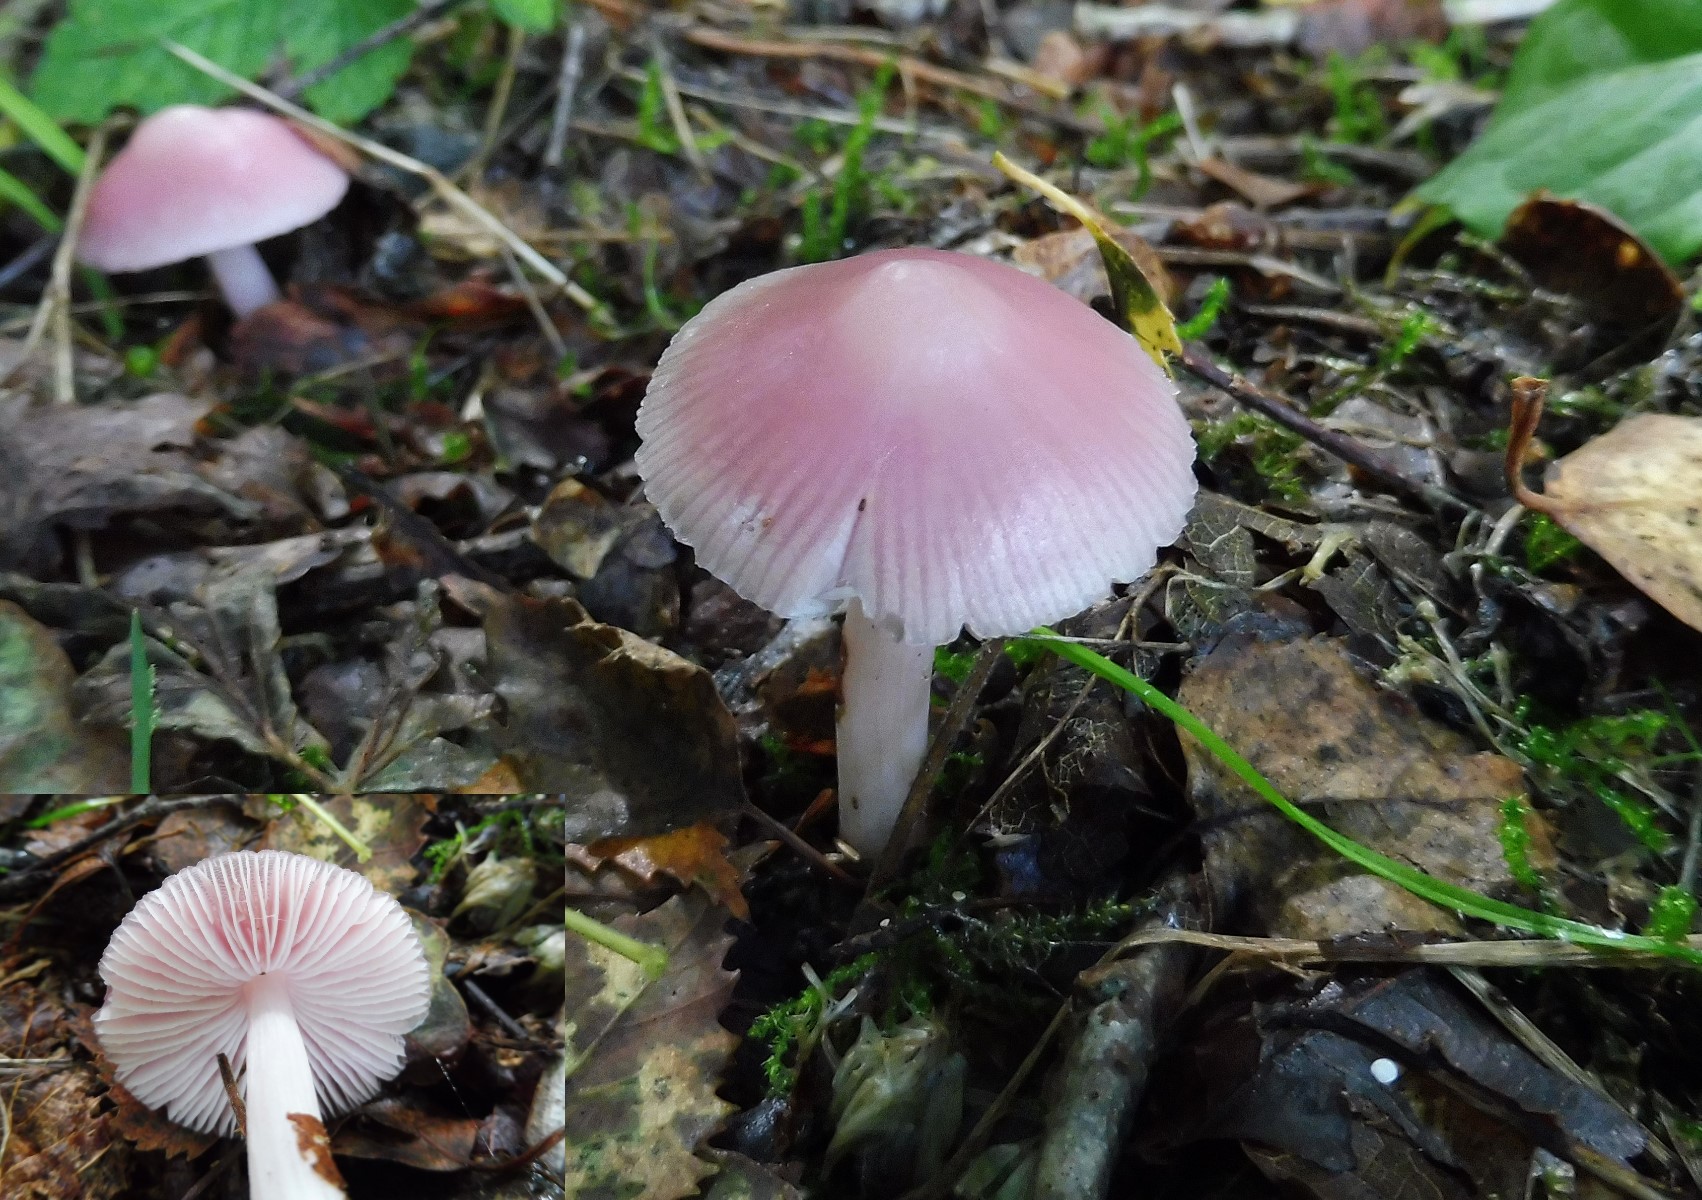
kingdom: Fungi
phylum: Basidiomycota
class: Agaricomycetes
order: Agaricales
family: Mycenaceae
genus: Mycena
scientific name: Mycena rosea
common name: rosa huesvamp
